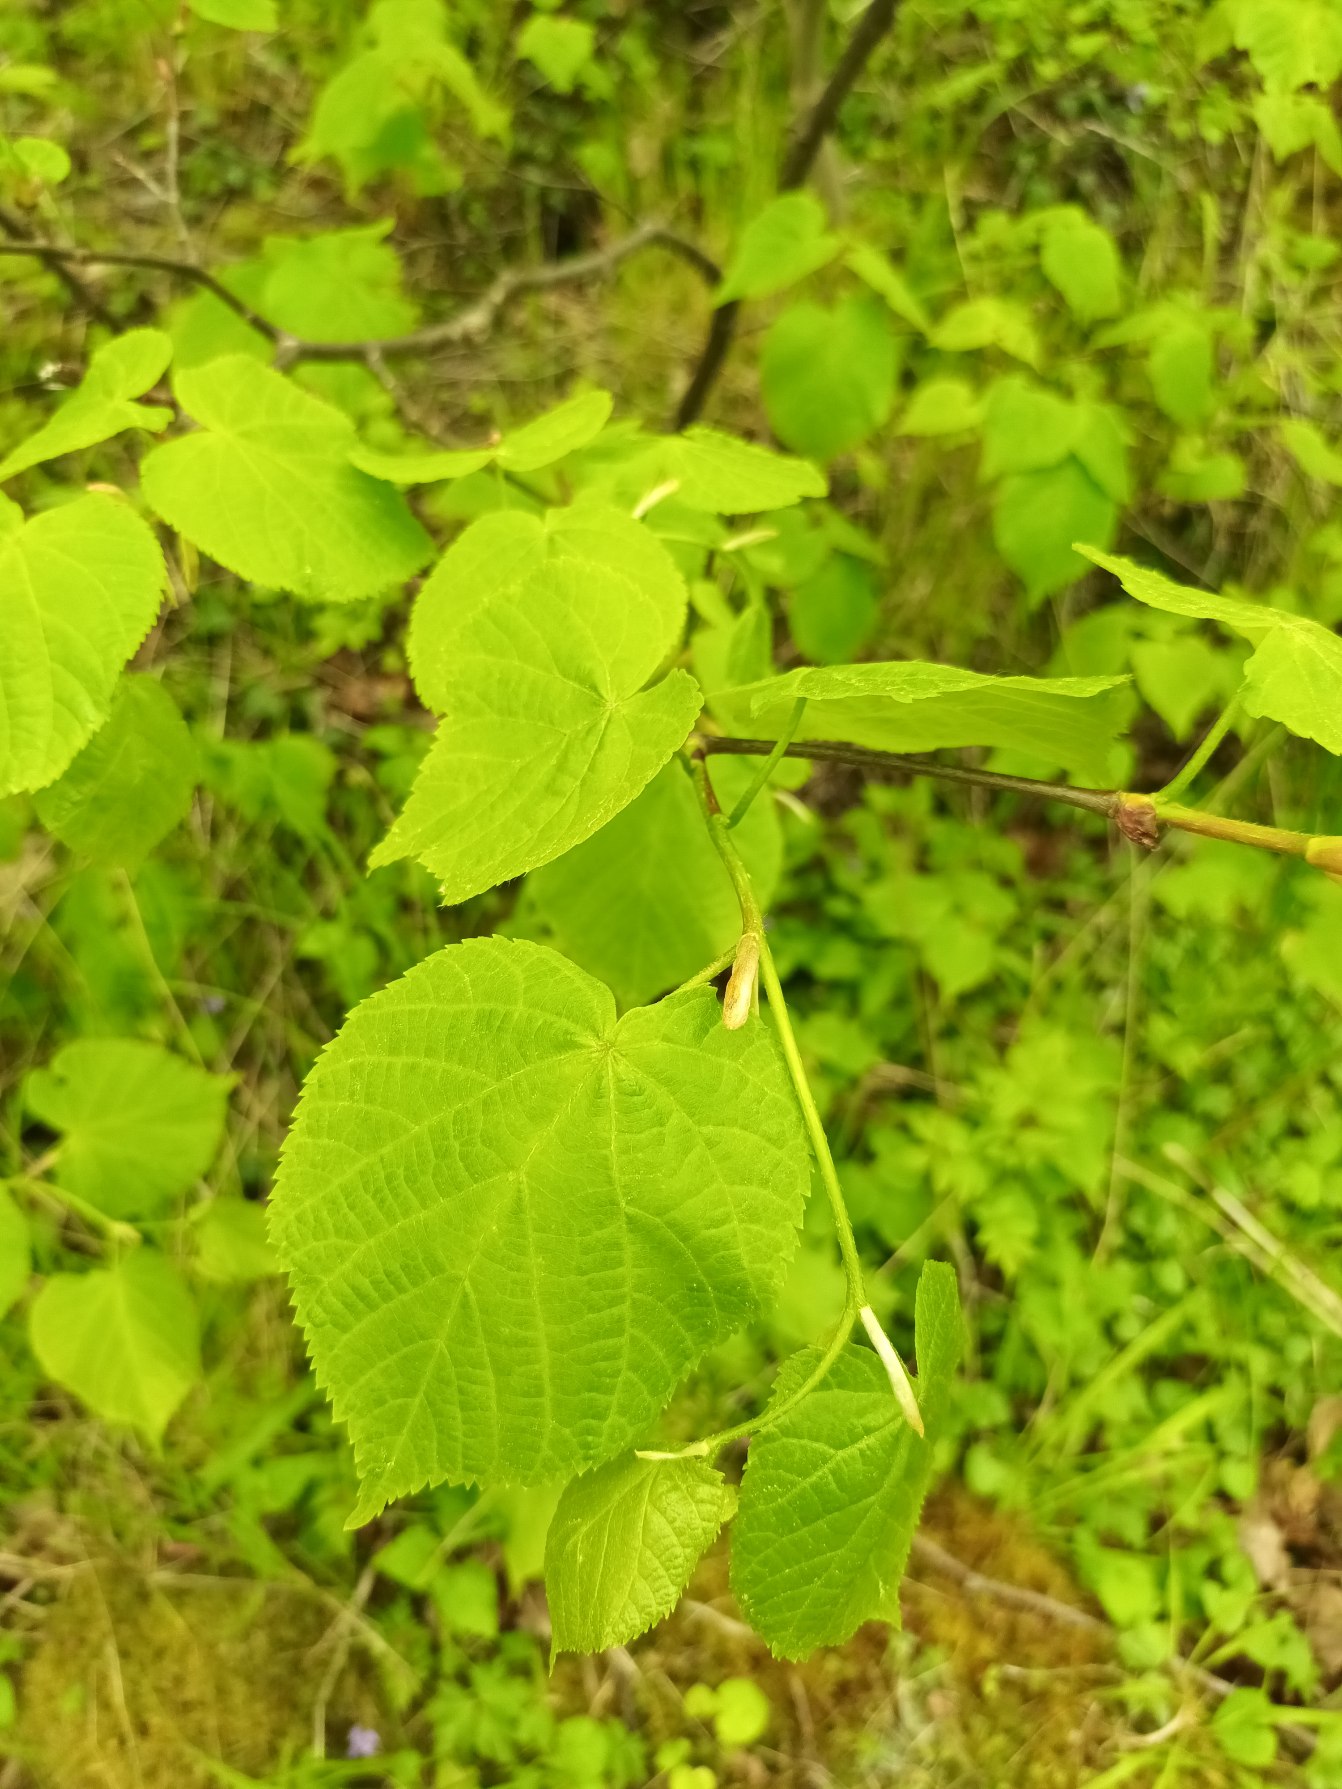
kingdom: Plantae
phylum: Tracheophyta
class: Magnoliopsida
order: Malvales
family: Malvaceae
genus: Tilia
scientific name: Tilia europaea
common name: Park-lind
